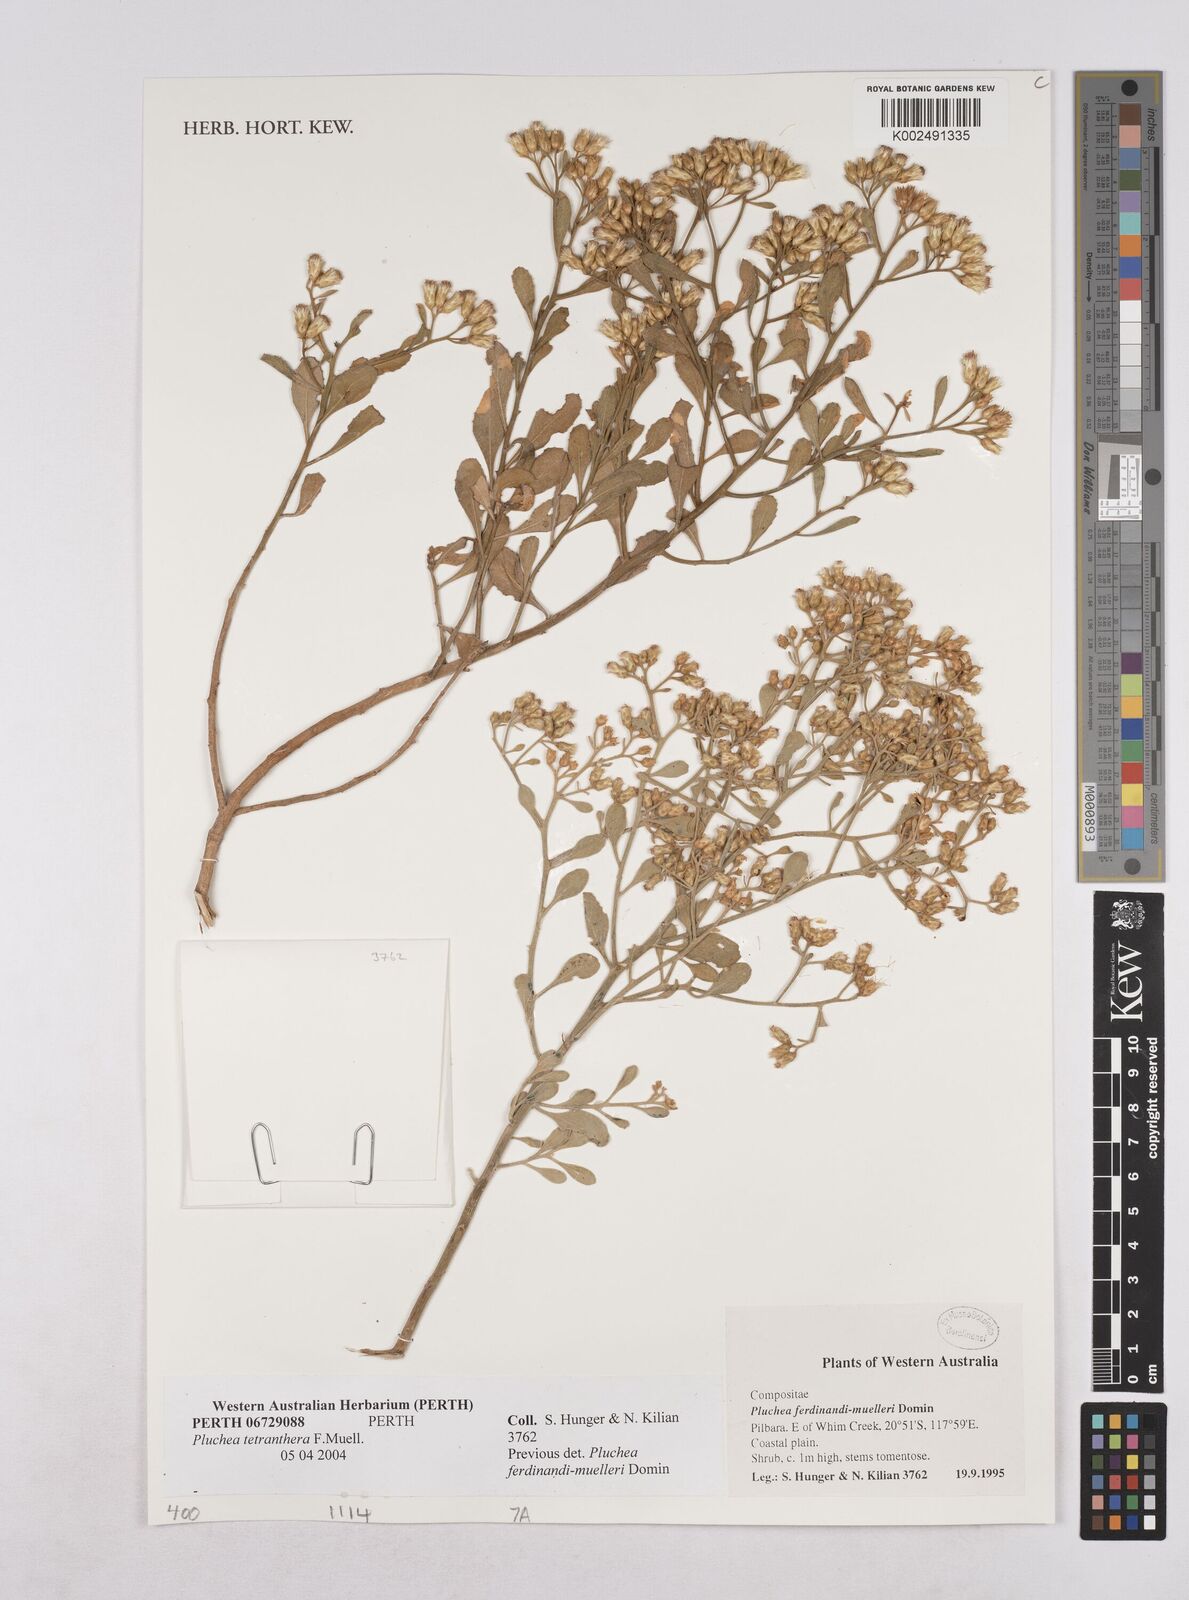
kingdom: Plantae
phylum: Tracheophyta
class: Magnoliopsida
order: Asterales
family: Asteraceae
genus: Pluchea
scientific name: Pluchea tetranthera
